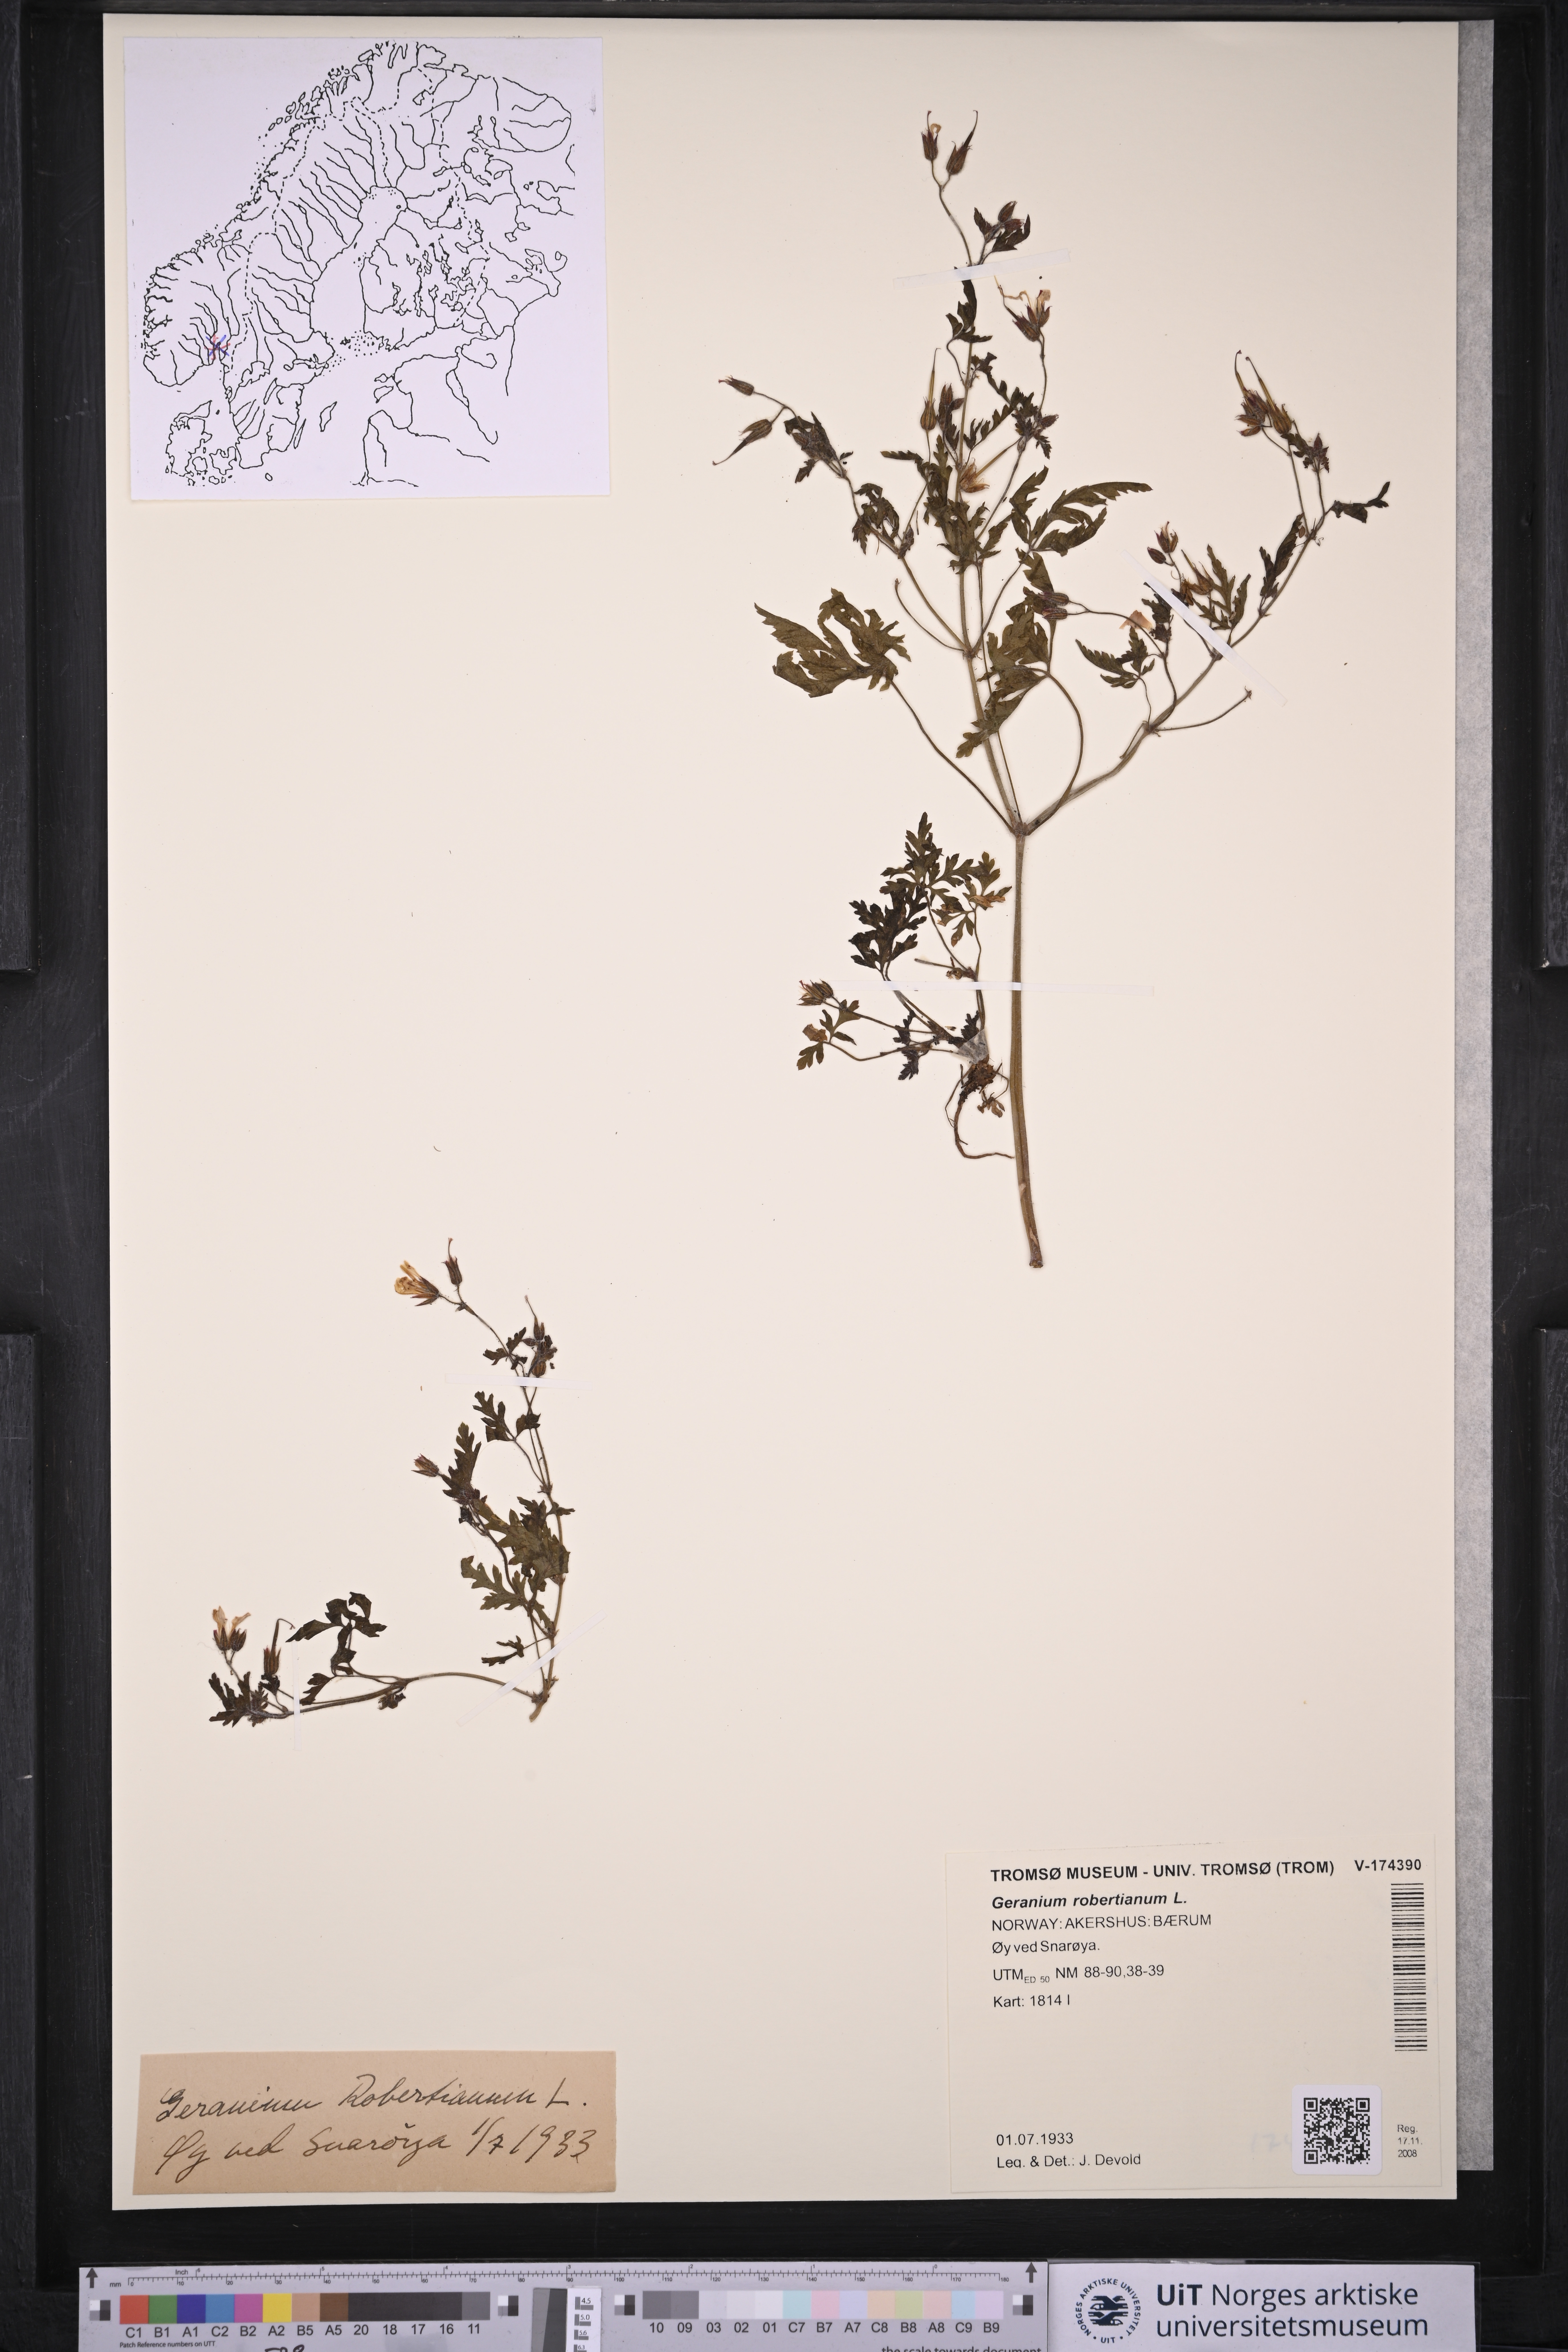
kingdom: Plantae
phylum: Tracheophyta
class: Magnoliopsida
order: Geraniales
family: Geraniaceae
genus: Geranium
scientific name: Geranium robertianum
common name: Herb-robert
